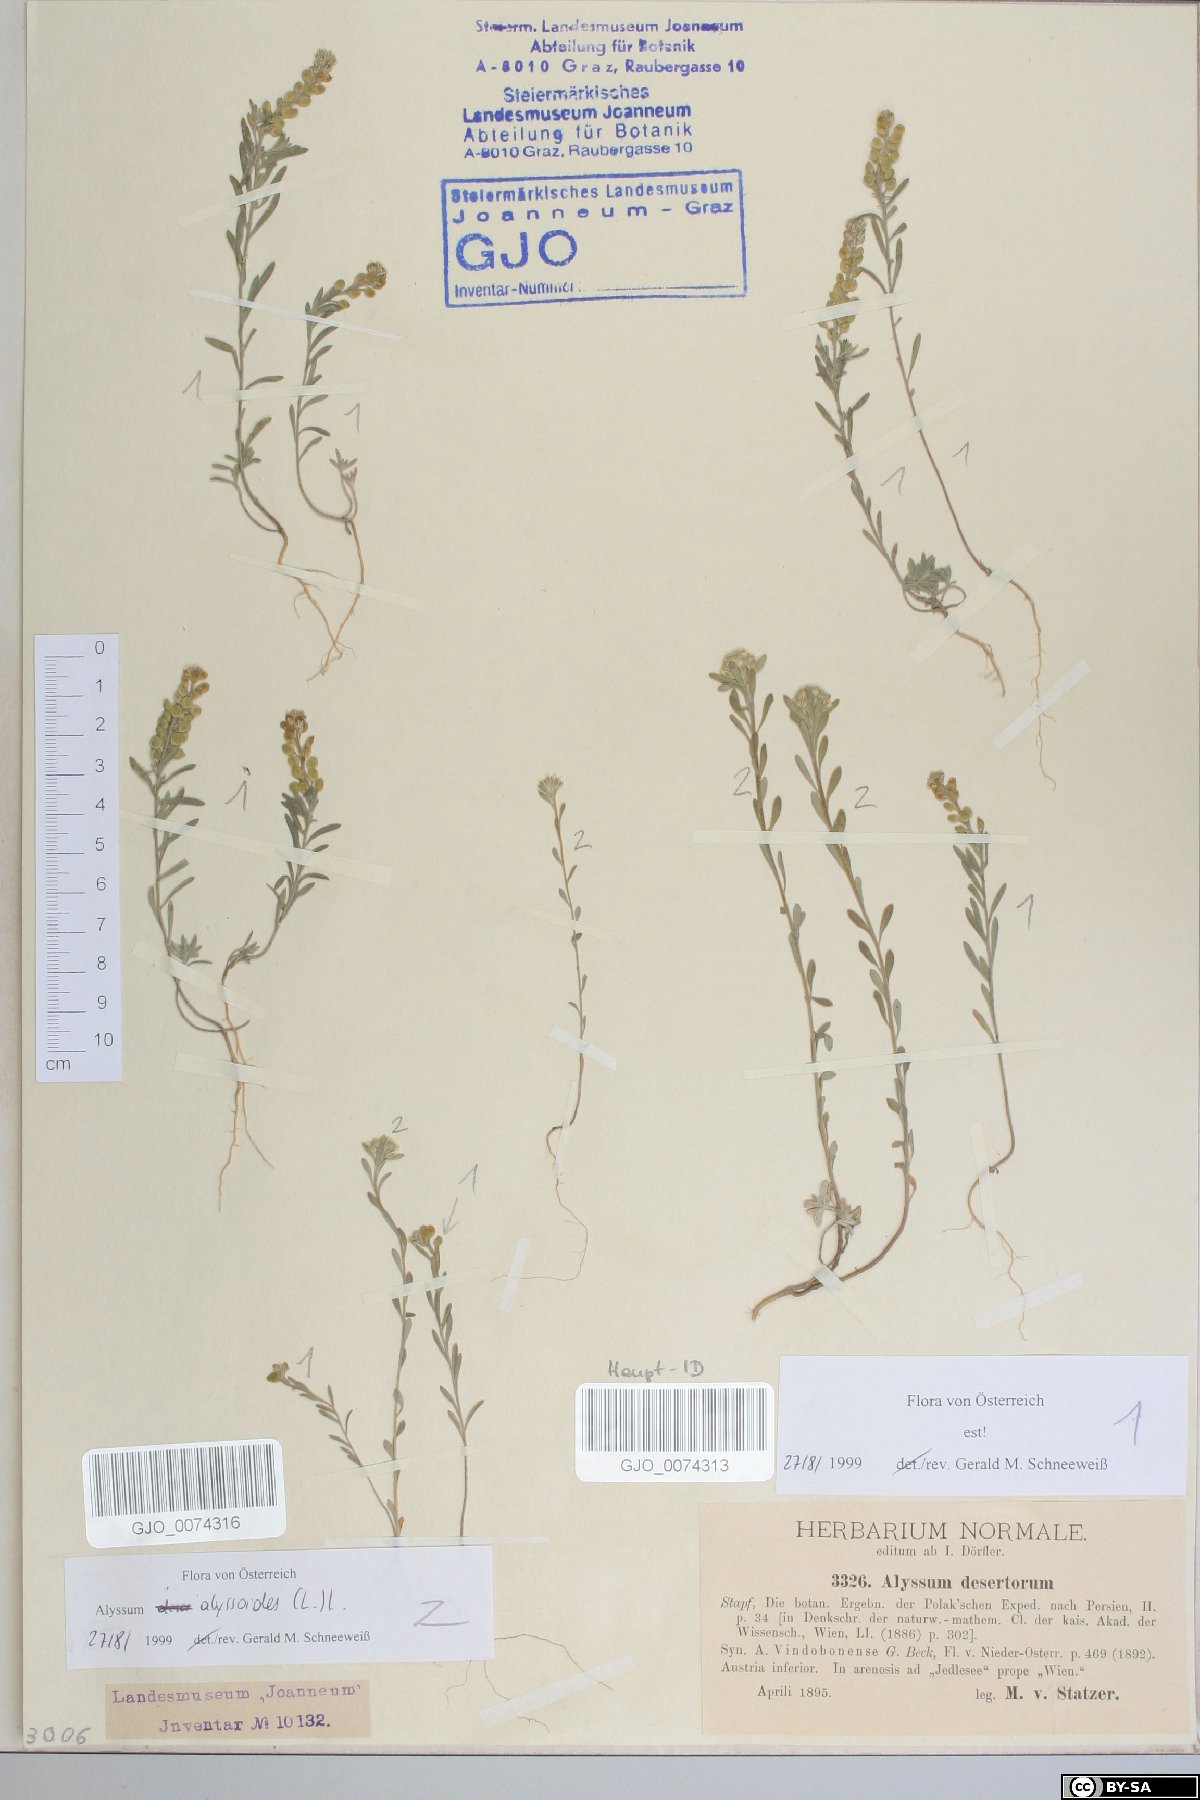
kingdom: Plantae
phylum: Tracheophyta
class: Magnoliopsida
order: Brassicales
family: Brassicaceae
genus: Alyssum
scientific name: Alyssum alyssoides
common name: Small alison
